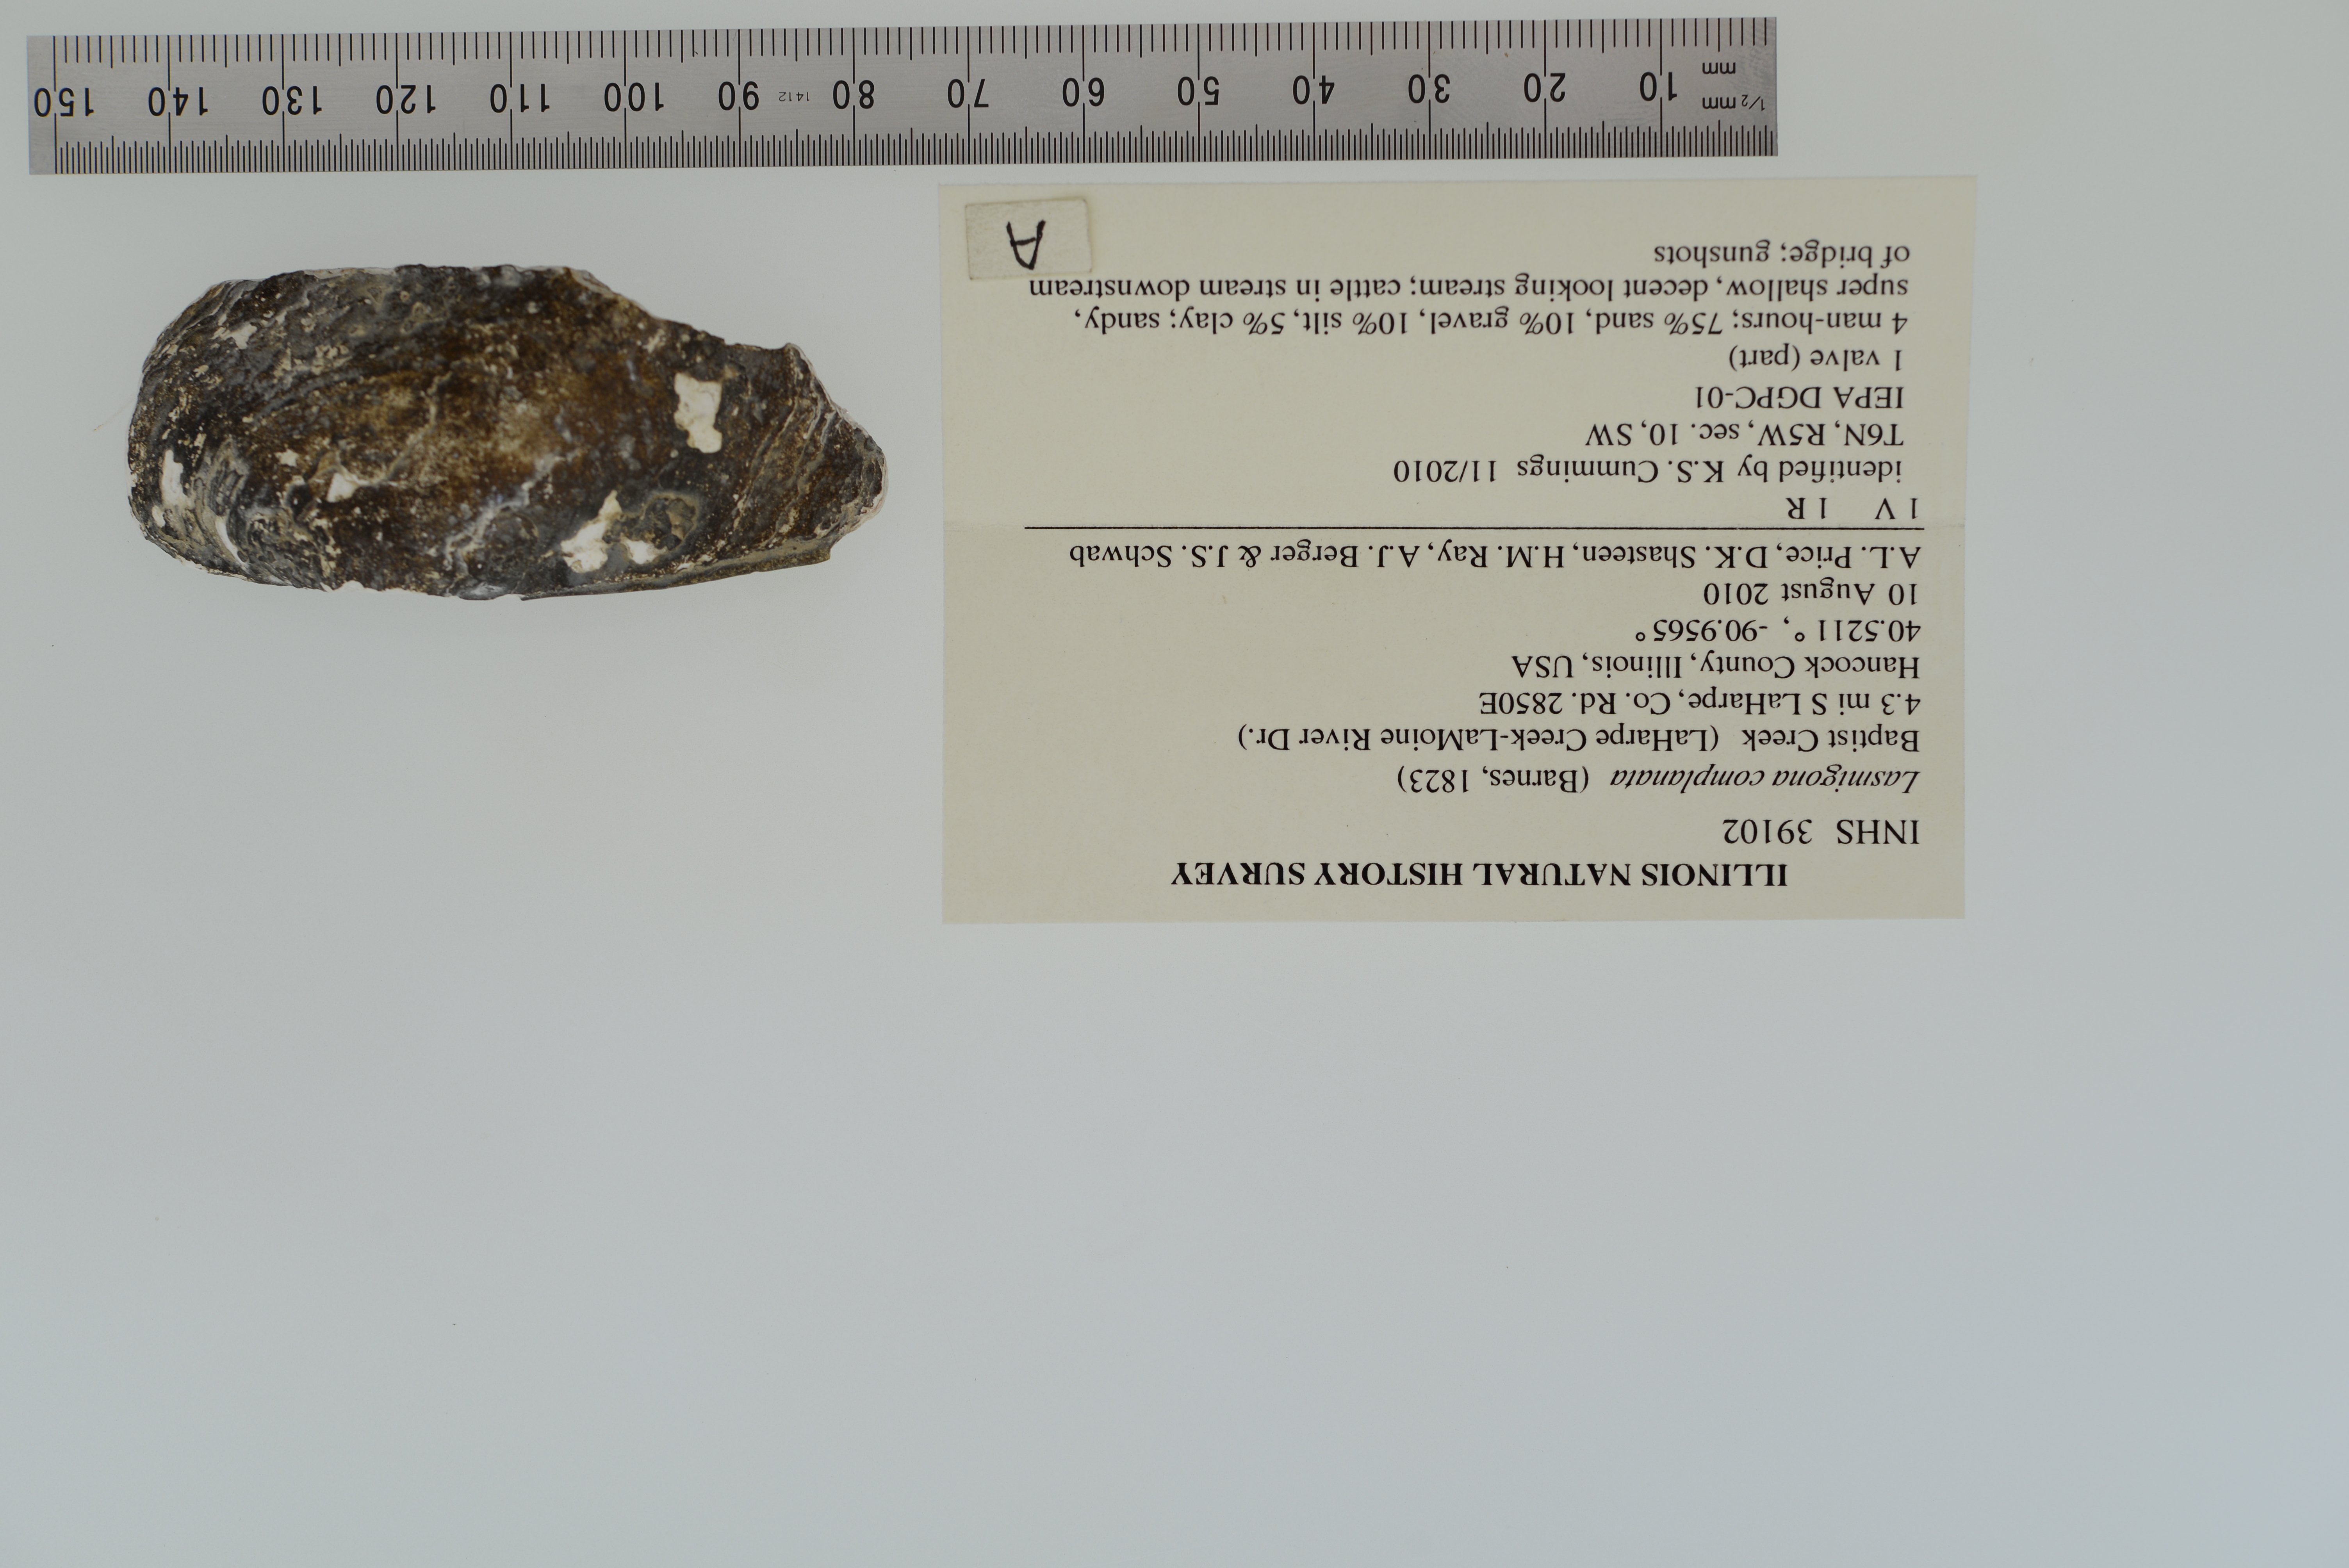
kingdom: Animalia
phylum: Mollusca
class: Bivalvia
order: Unionida
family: Unionidae
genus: Lasmigona
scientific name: Lasmigona complanata
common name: White heelsplitter
